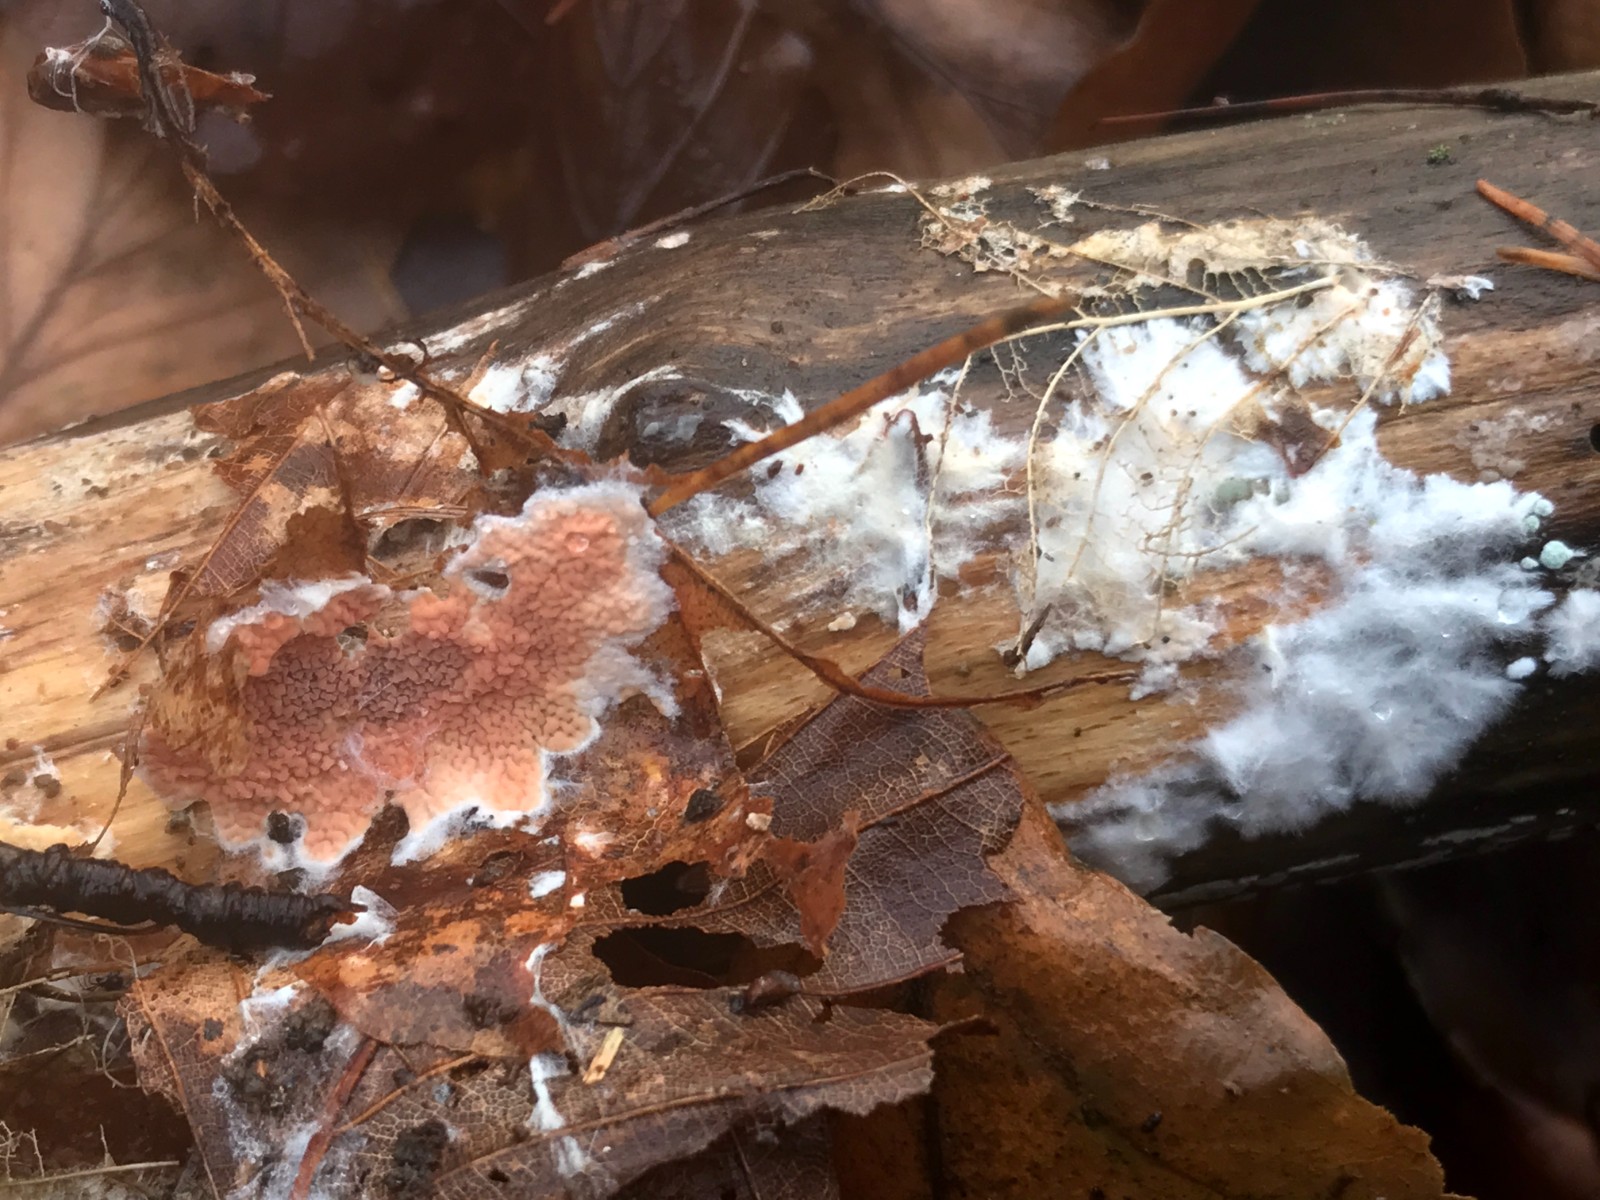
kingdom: Fungi
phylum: Basidiomycota
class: Agaricomycetes
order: Polyporales
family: Irpicaceae
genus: Meruliopsis
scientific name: Meruliopsis taxicola
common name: purpurbrun foldporesvamp
